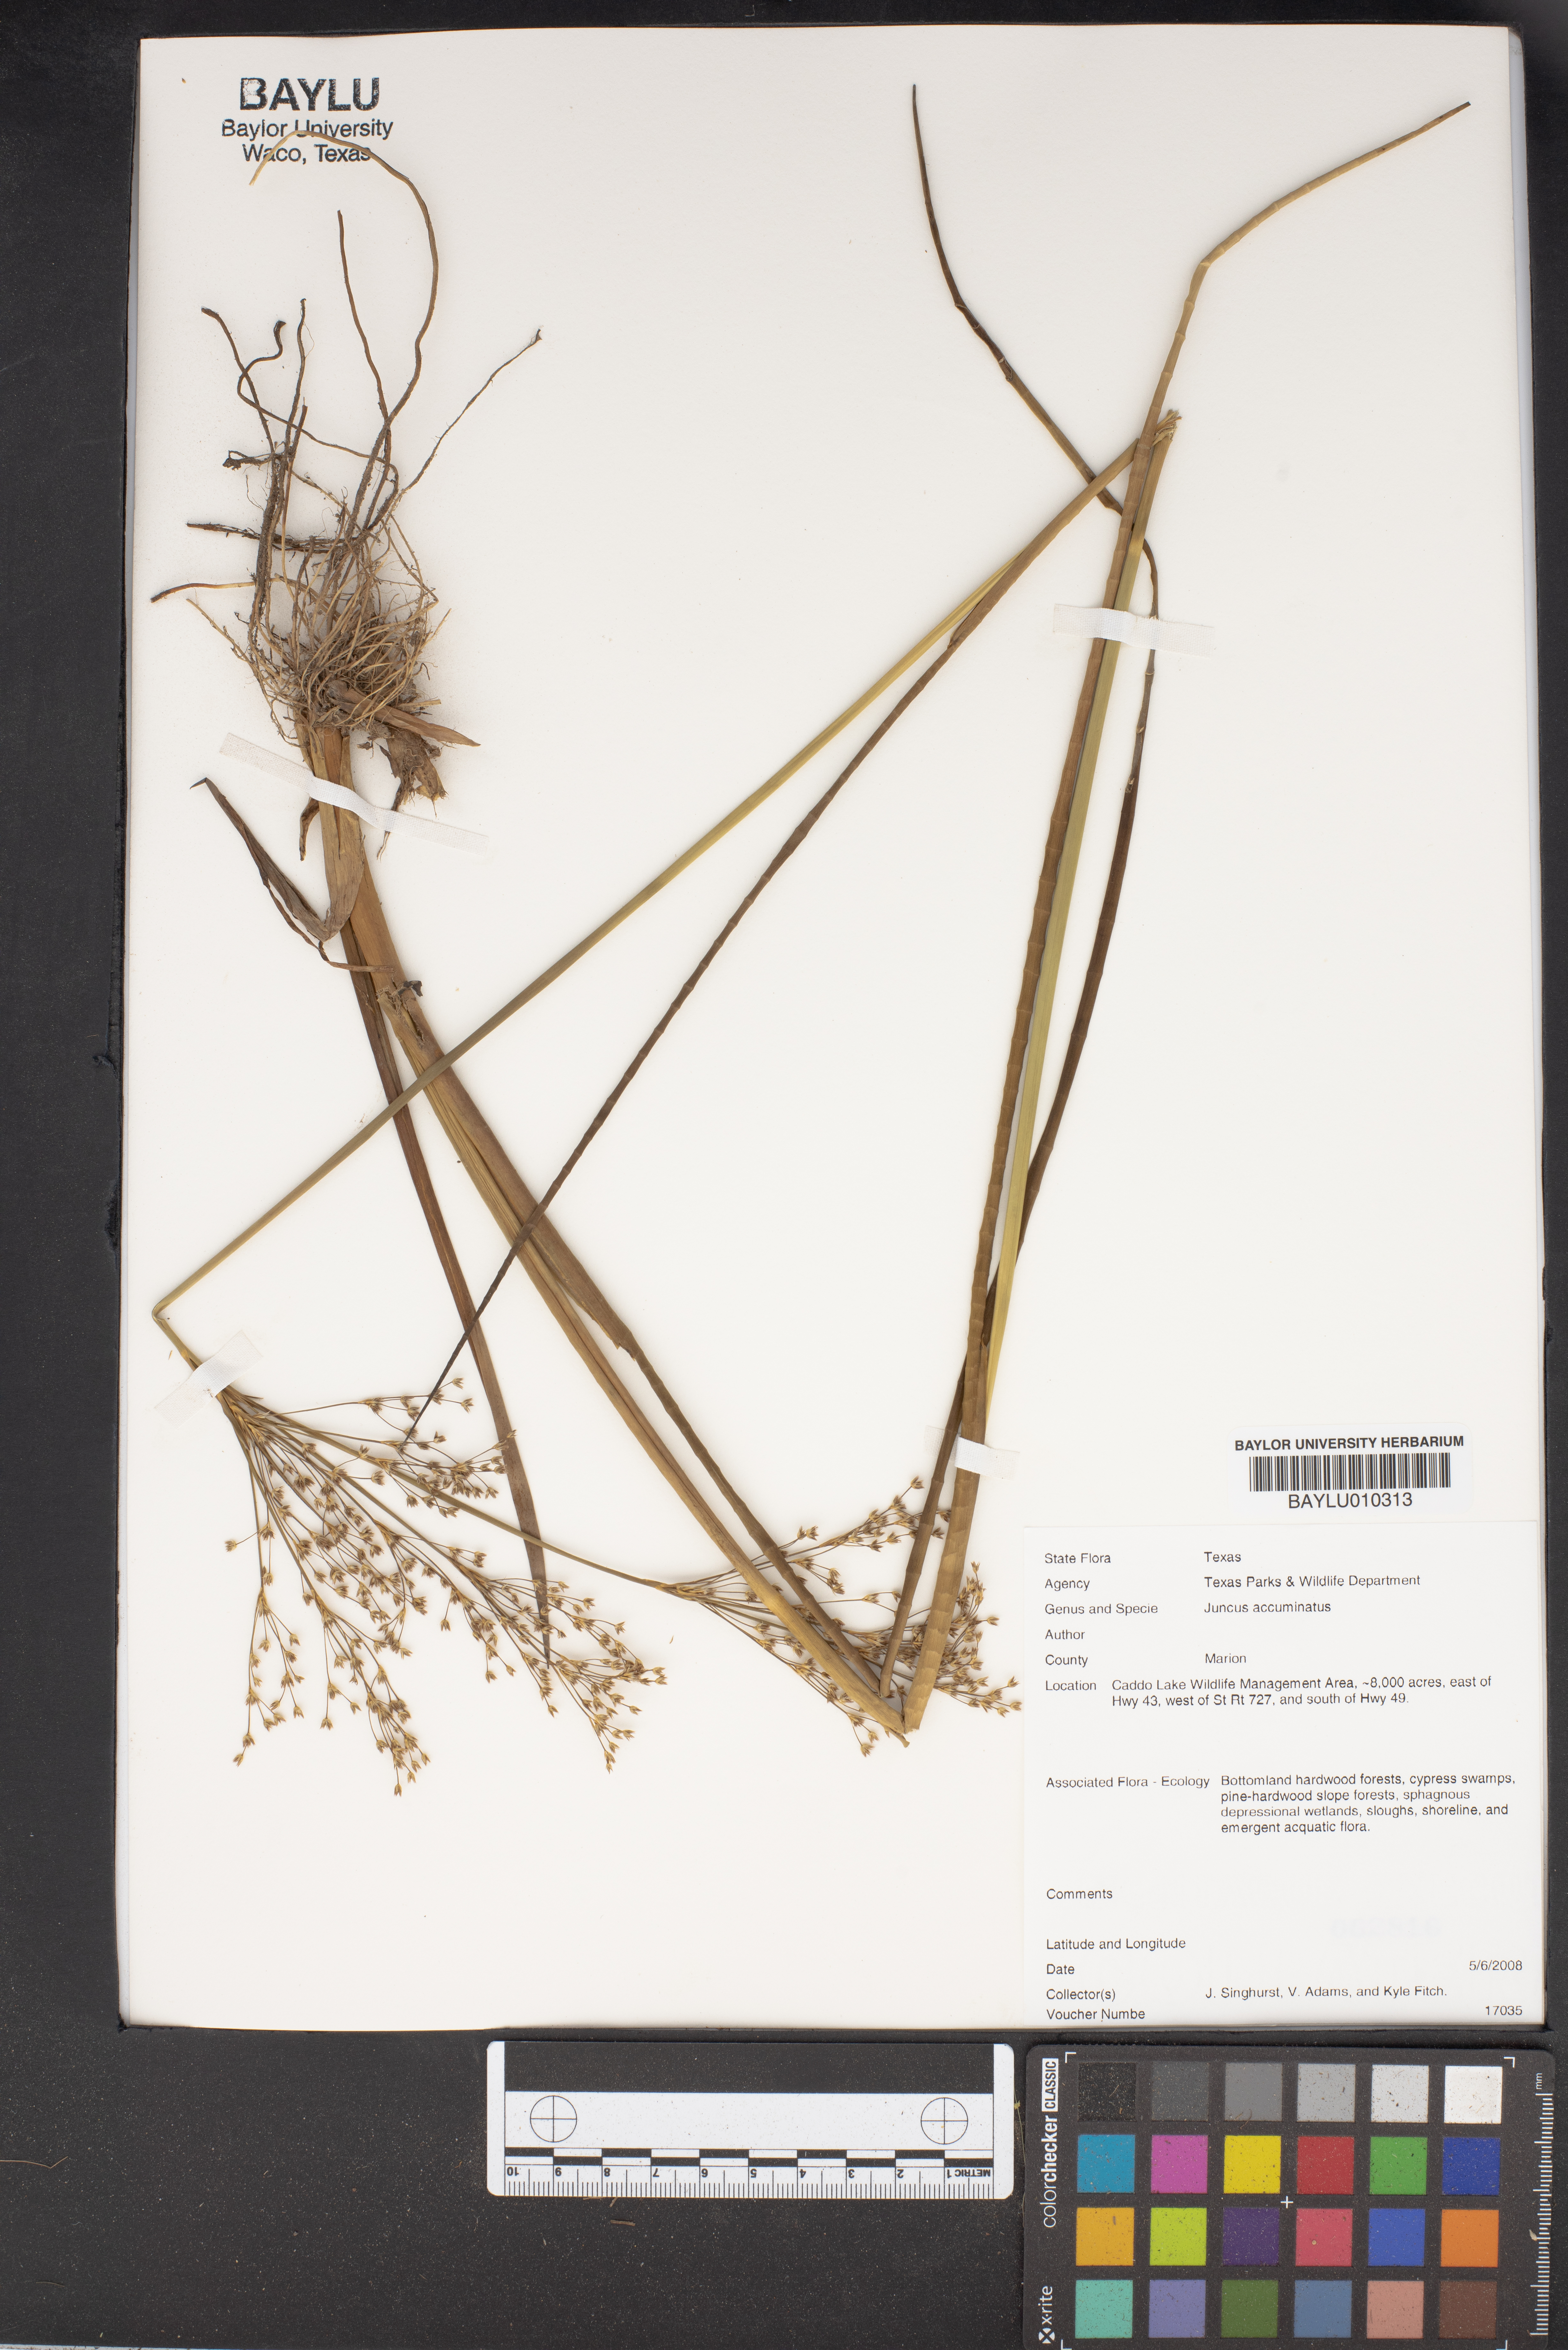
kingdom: Plantae
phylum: Tracheophyta
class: Liliopsida
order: Poales
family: Juncaceae
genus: Juncus
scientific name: Juncus acuminatus
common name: Knotty-leaved rush
